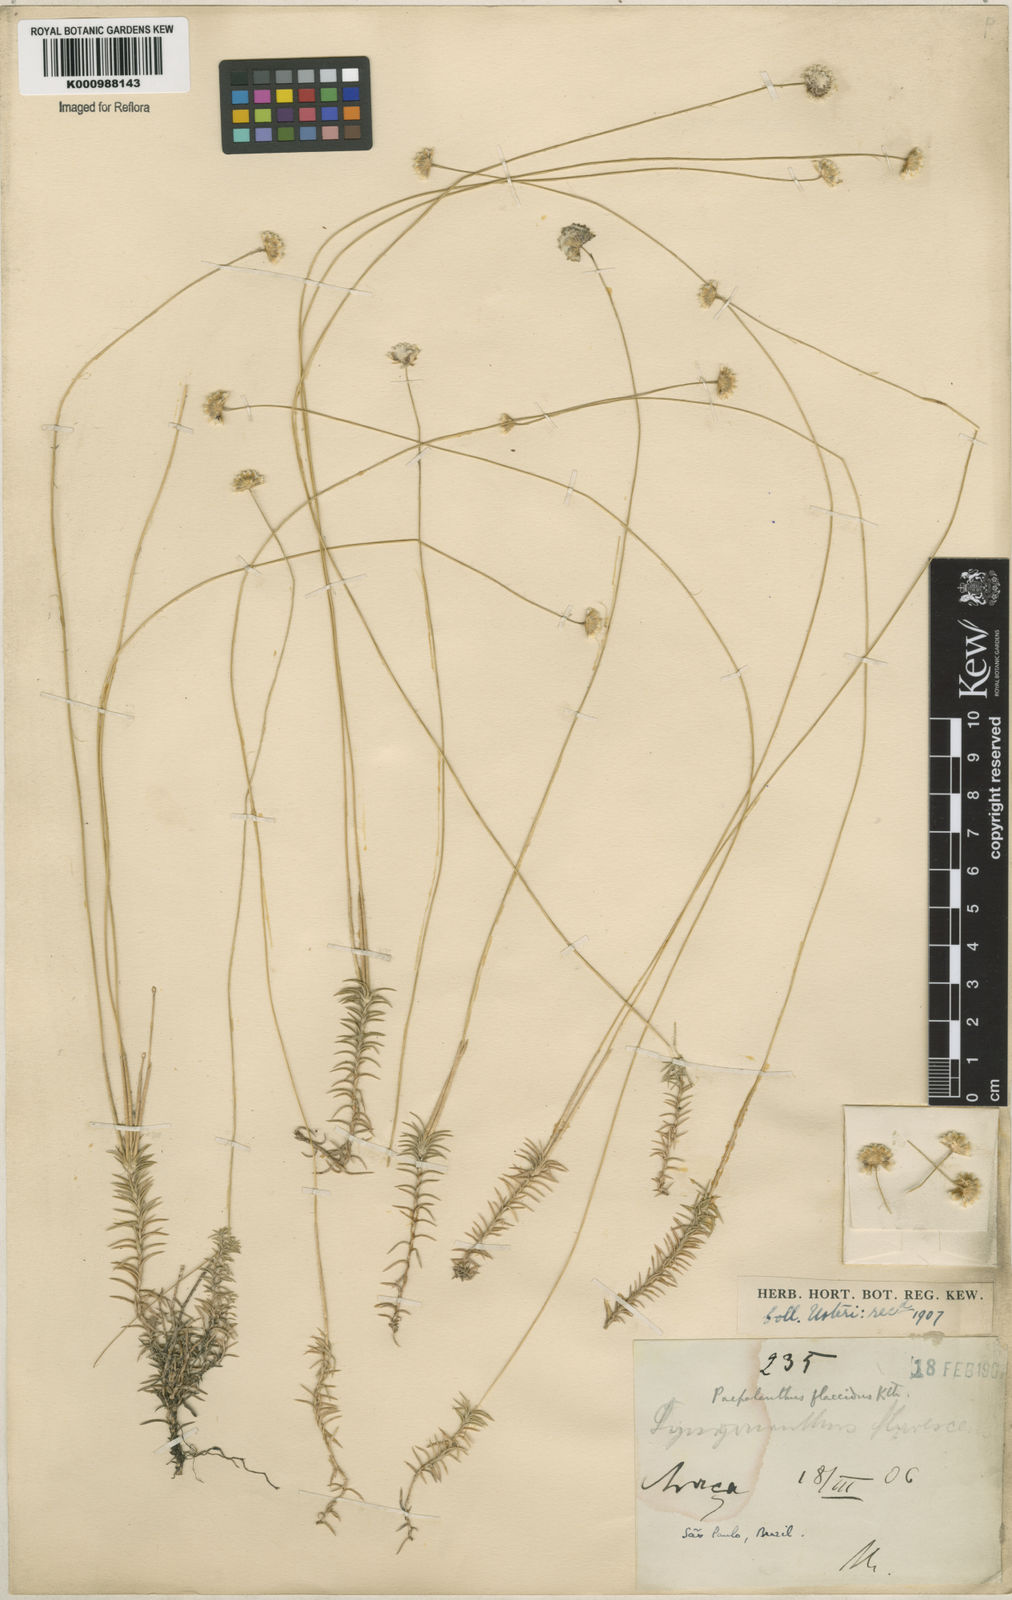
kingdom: Plantae
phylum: Tracheophyta
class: Liliopsida
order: Poales
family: Eriocaulaceae
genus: Paepalanthus
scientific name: Paepalanthus flaccidus
